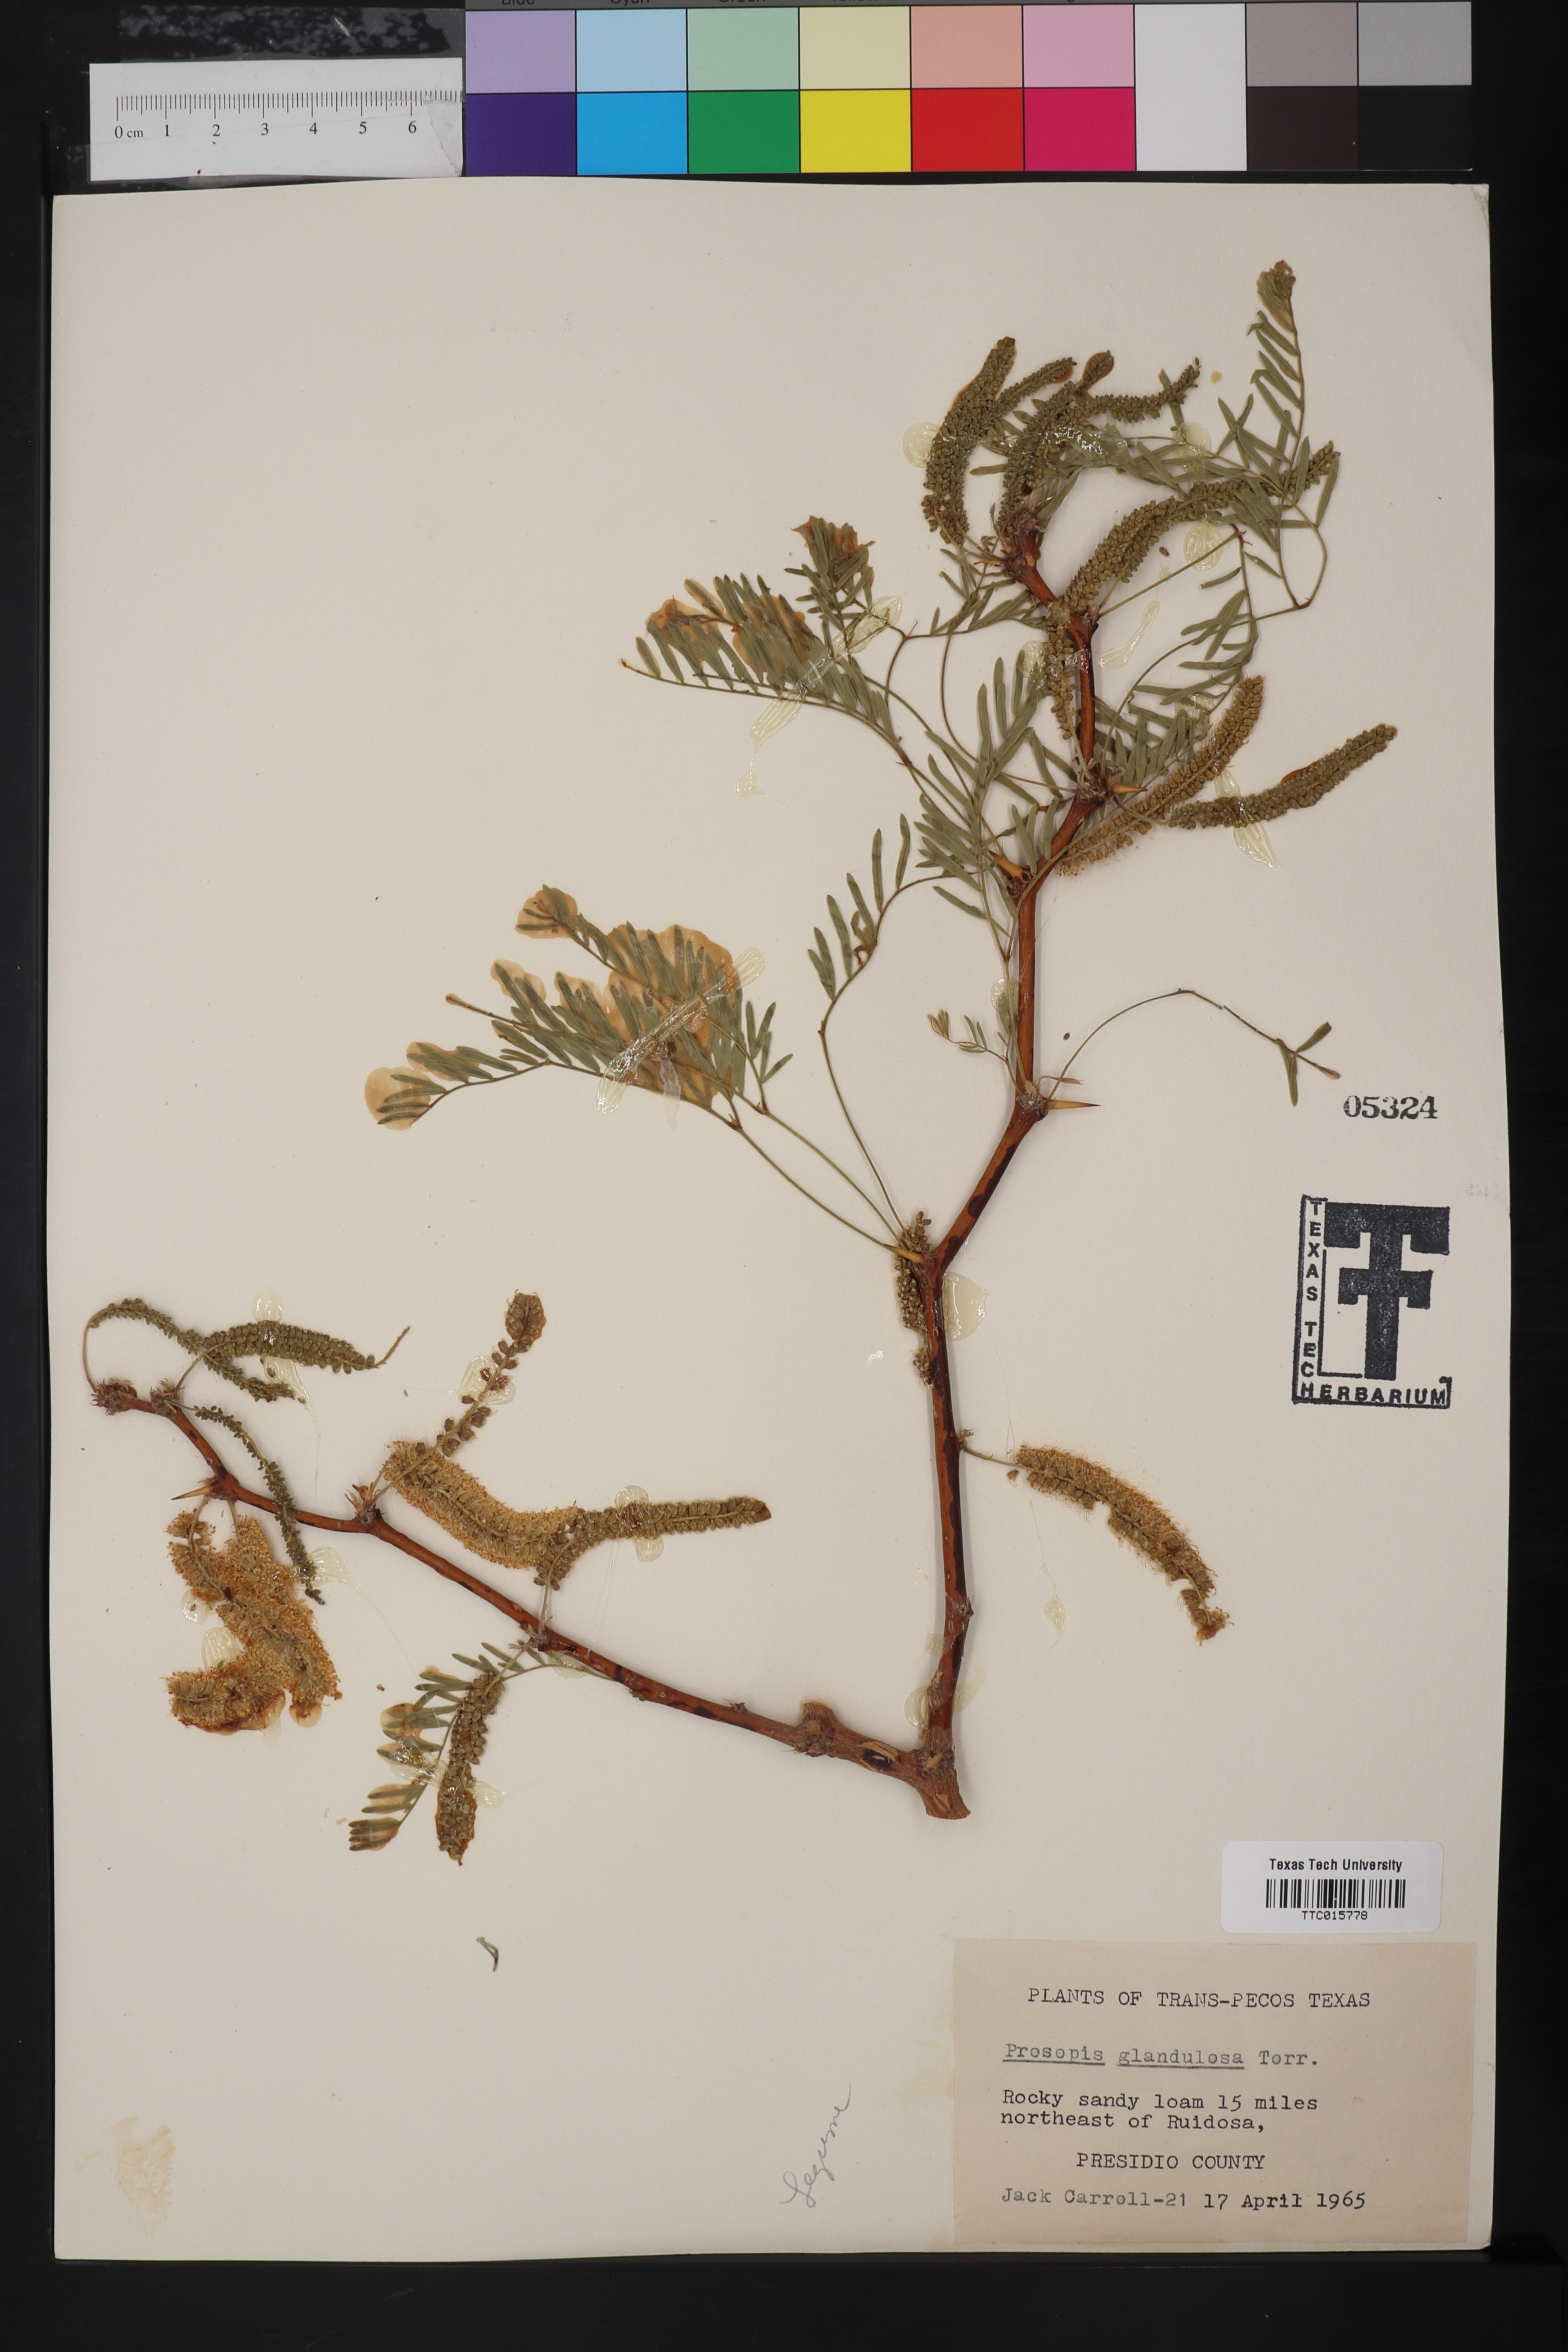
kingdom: Plantae
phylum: Tracheophyta
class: Magnoliopsida
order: Fabales
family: Fabaceae
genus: Prosopis
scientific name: Prosopis glandulosa
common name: Honey mesquite
